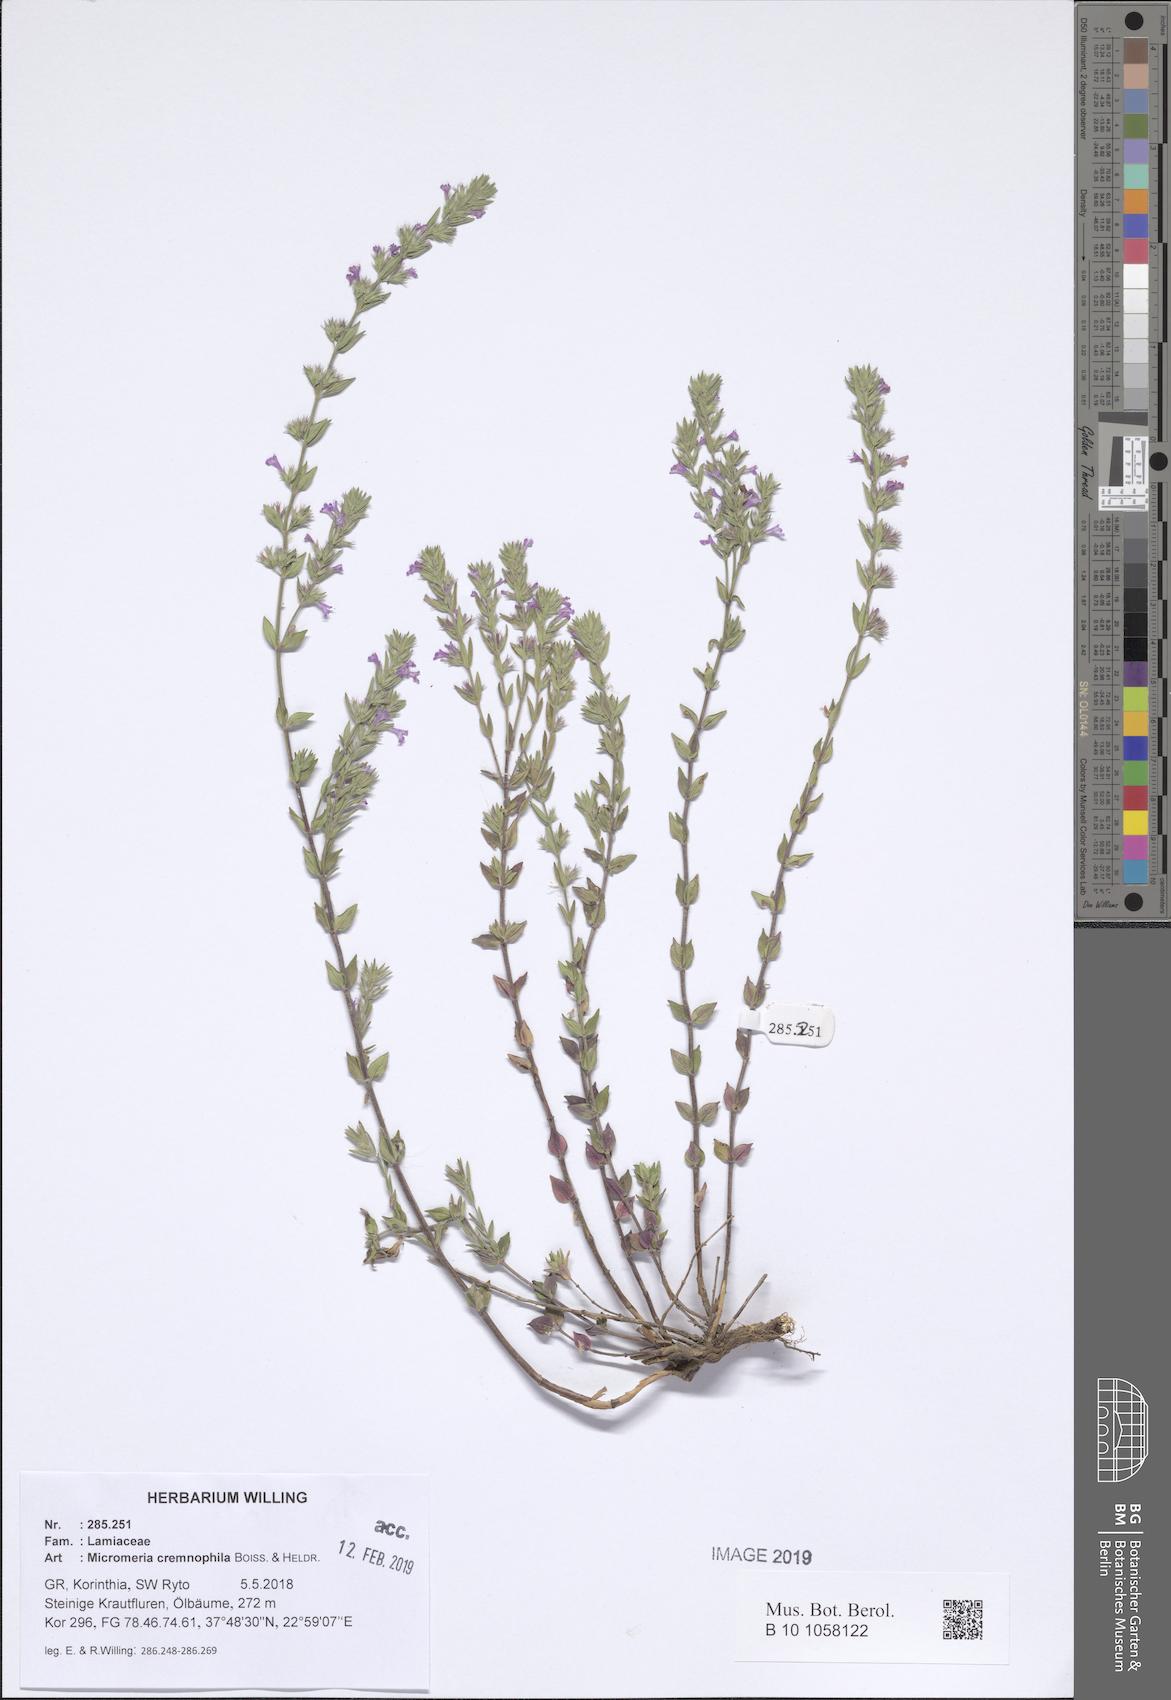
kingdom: Plantae
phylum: Tracheophyta
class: Magnoliopsida
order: Lamiales
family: Lamiaceae
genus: Micromeria
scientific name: Micromeria graeca
